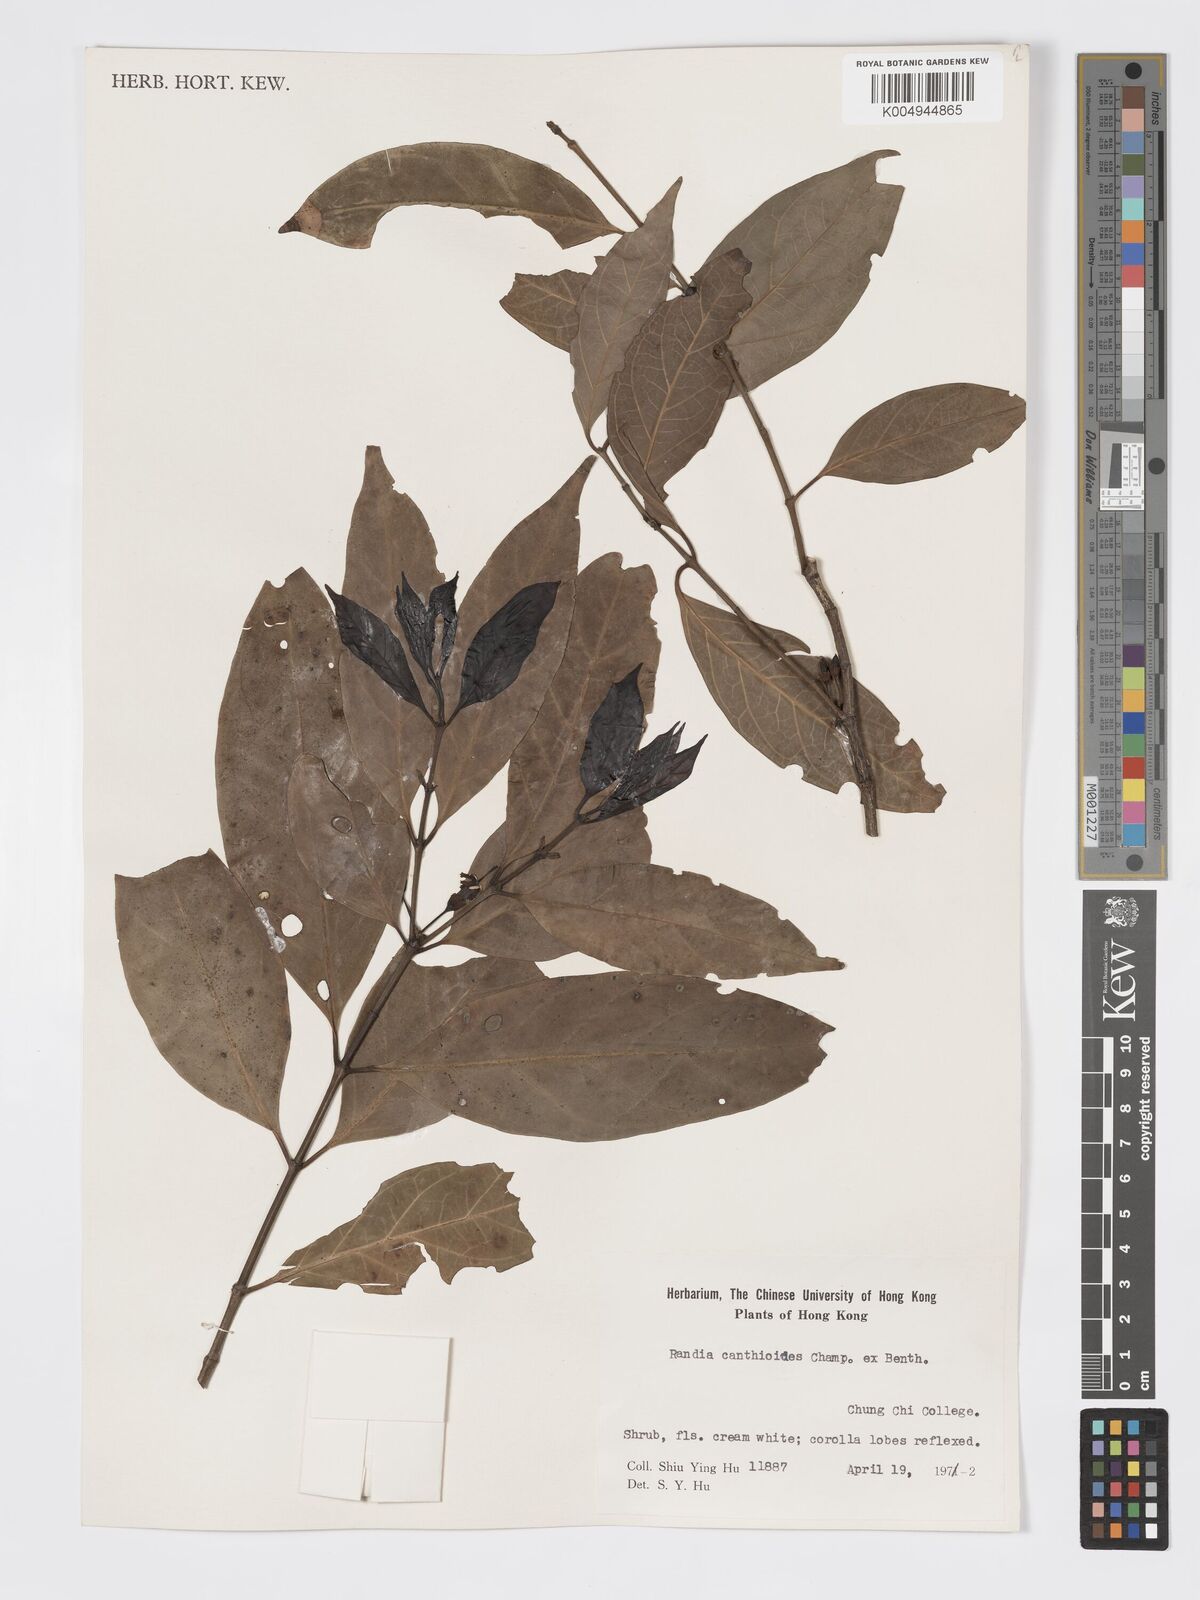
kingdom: Plantae
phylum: Tracheophyta
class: Magnoliopsida
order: Gentianales
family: Rubiaceae
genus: Aidia
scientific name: Aidia canthioides
